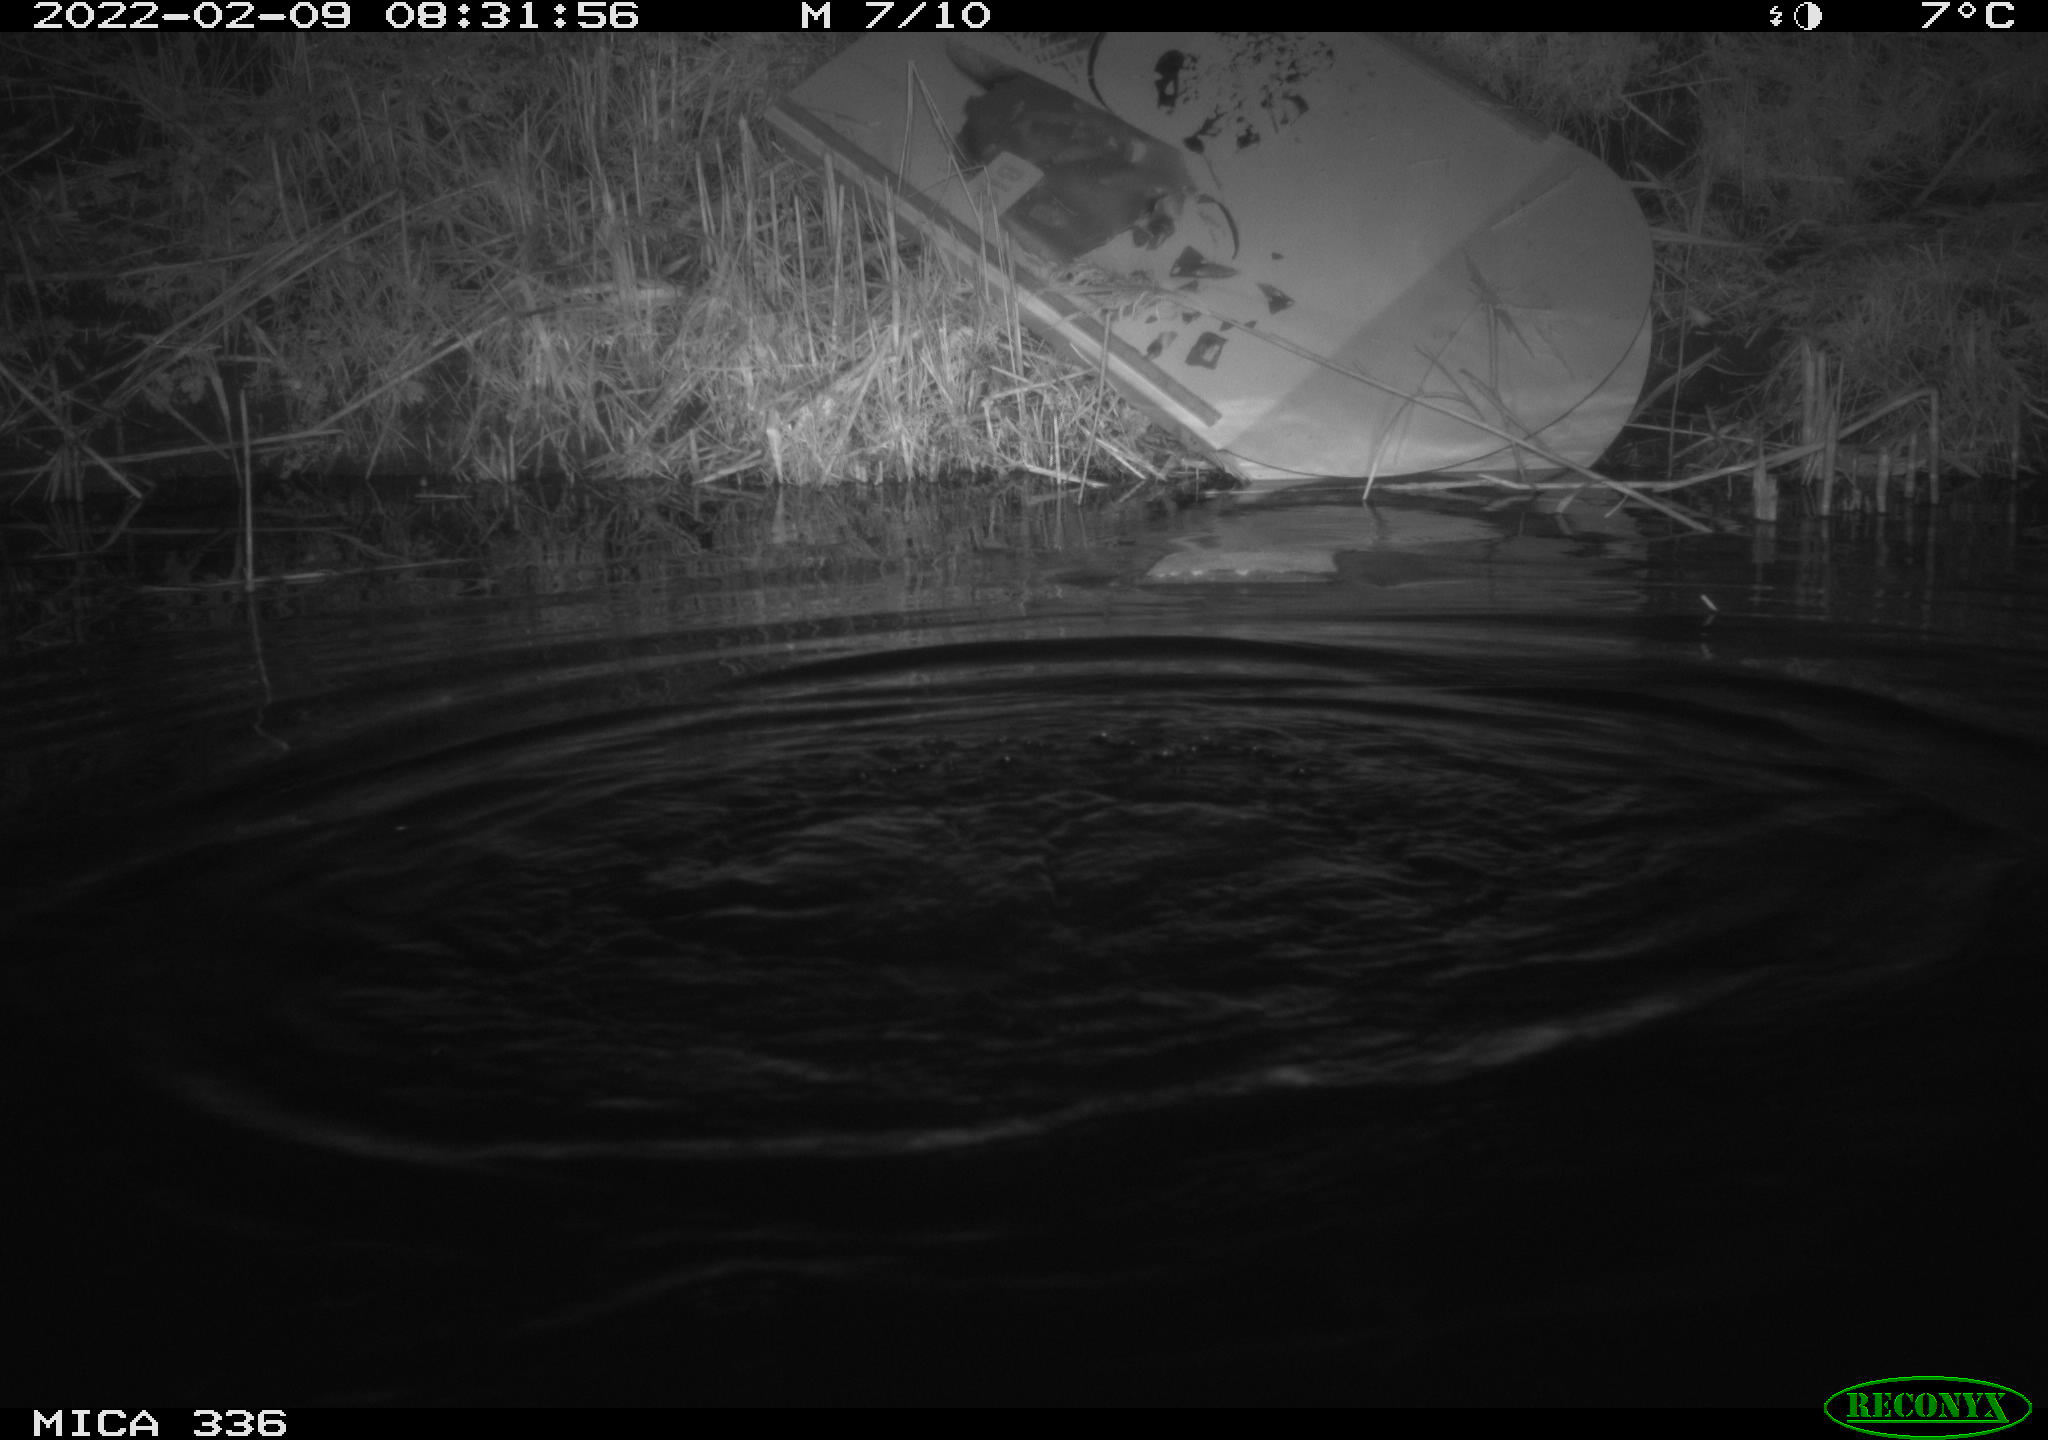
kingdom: Animalia
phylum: Chordata
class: Aves
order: Suliformes
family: Phalacrocoracidae
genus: Phalacrocorax
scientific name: Phalacrocorax carbo
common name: Great cormorant
